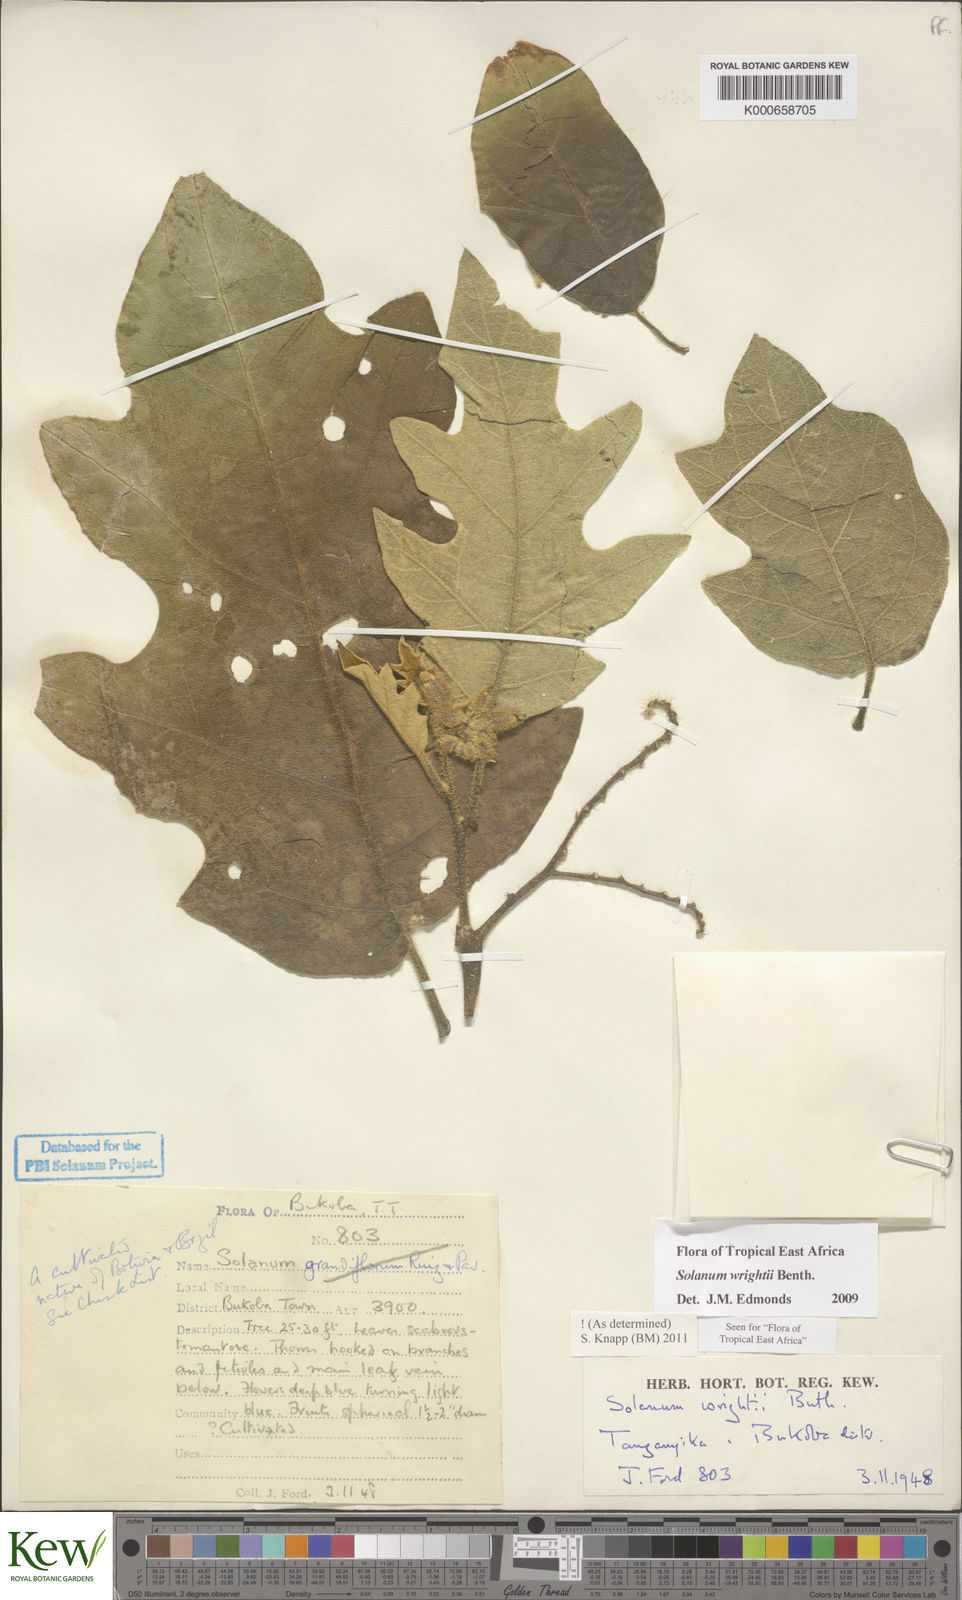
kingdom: Plantae
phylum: Tracheophyta
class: Magnoliopsida
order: Solanales
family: Solanaceae
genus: Solanum
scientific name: Solanum wrightii
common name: Brazilian potato-tree
